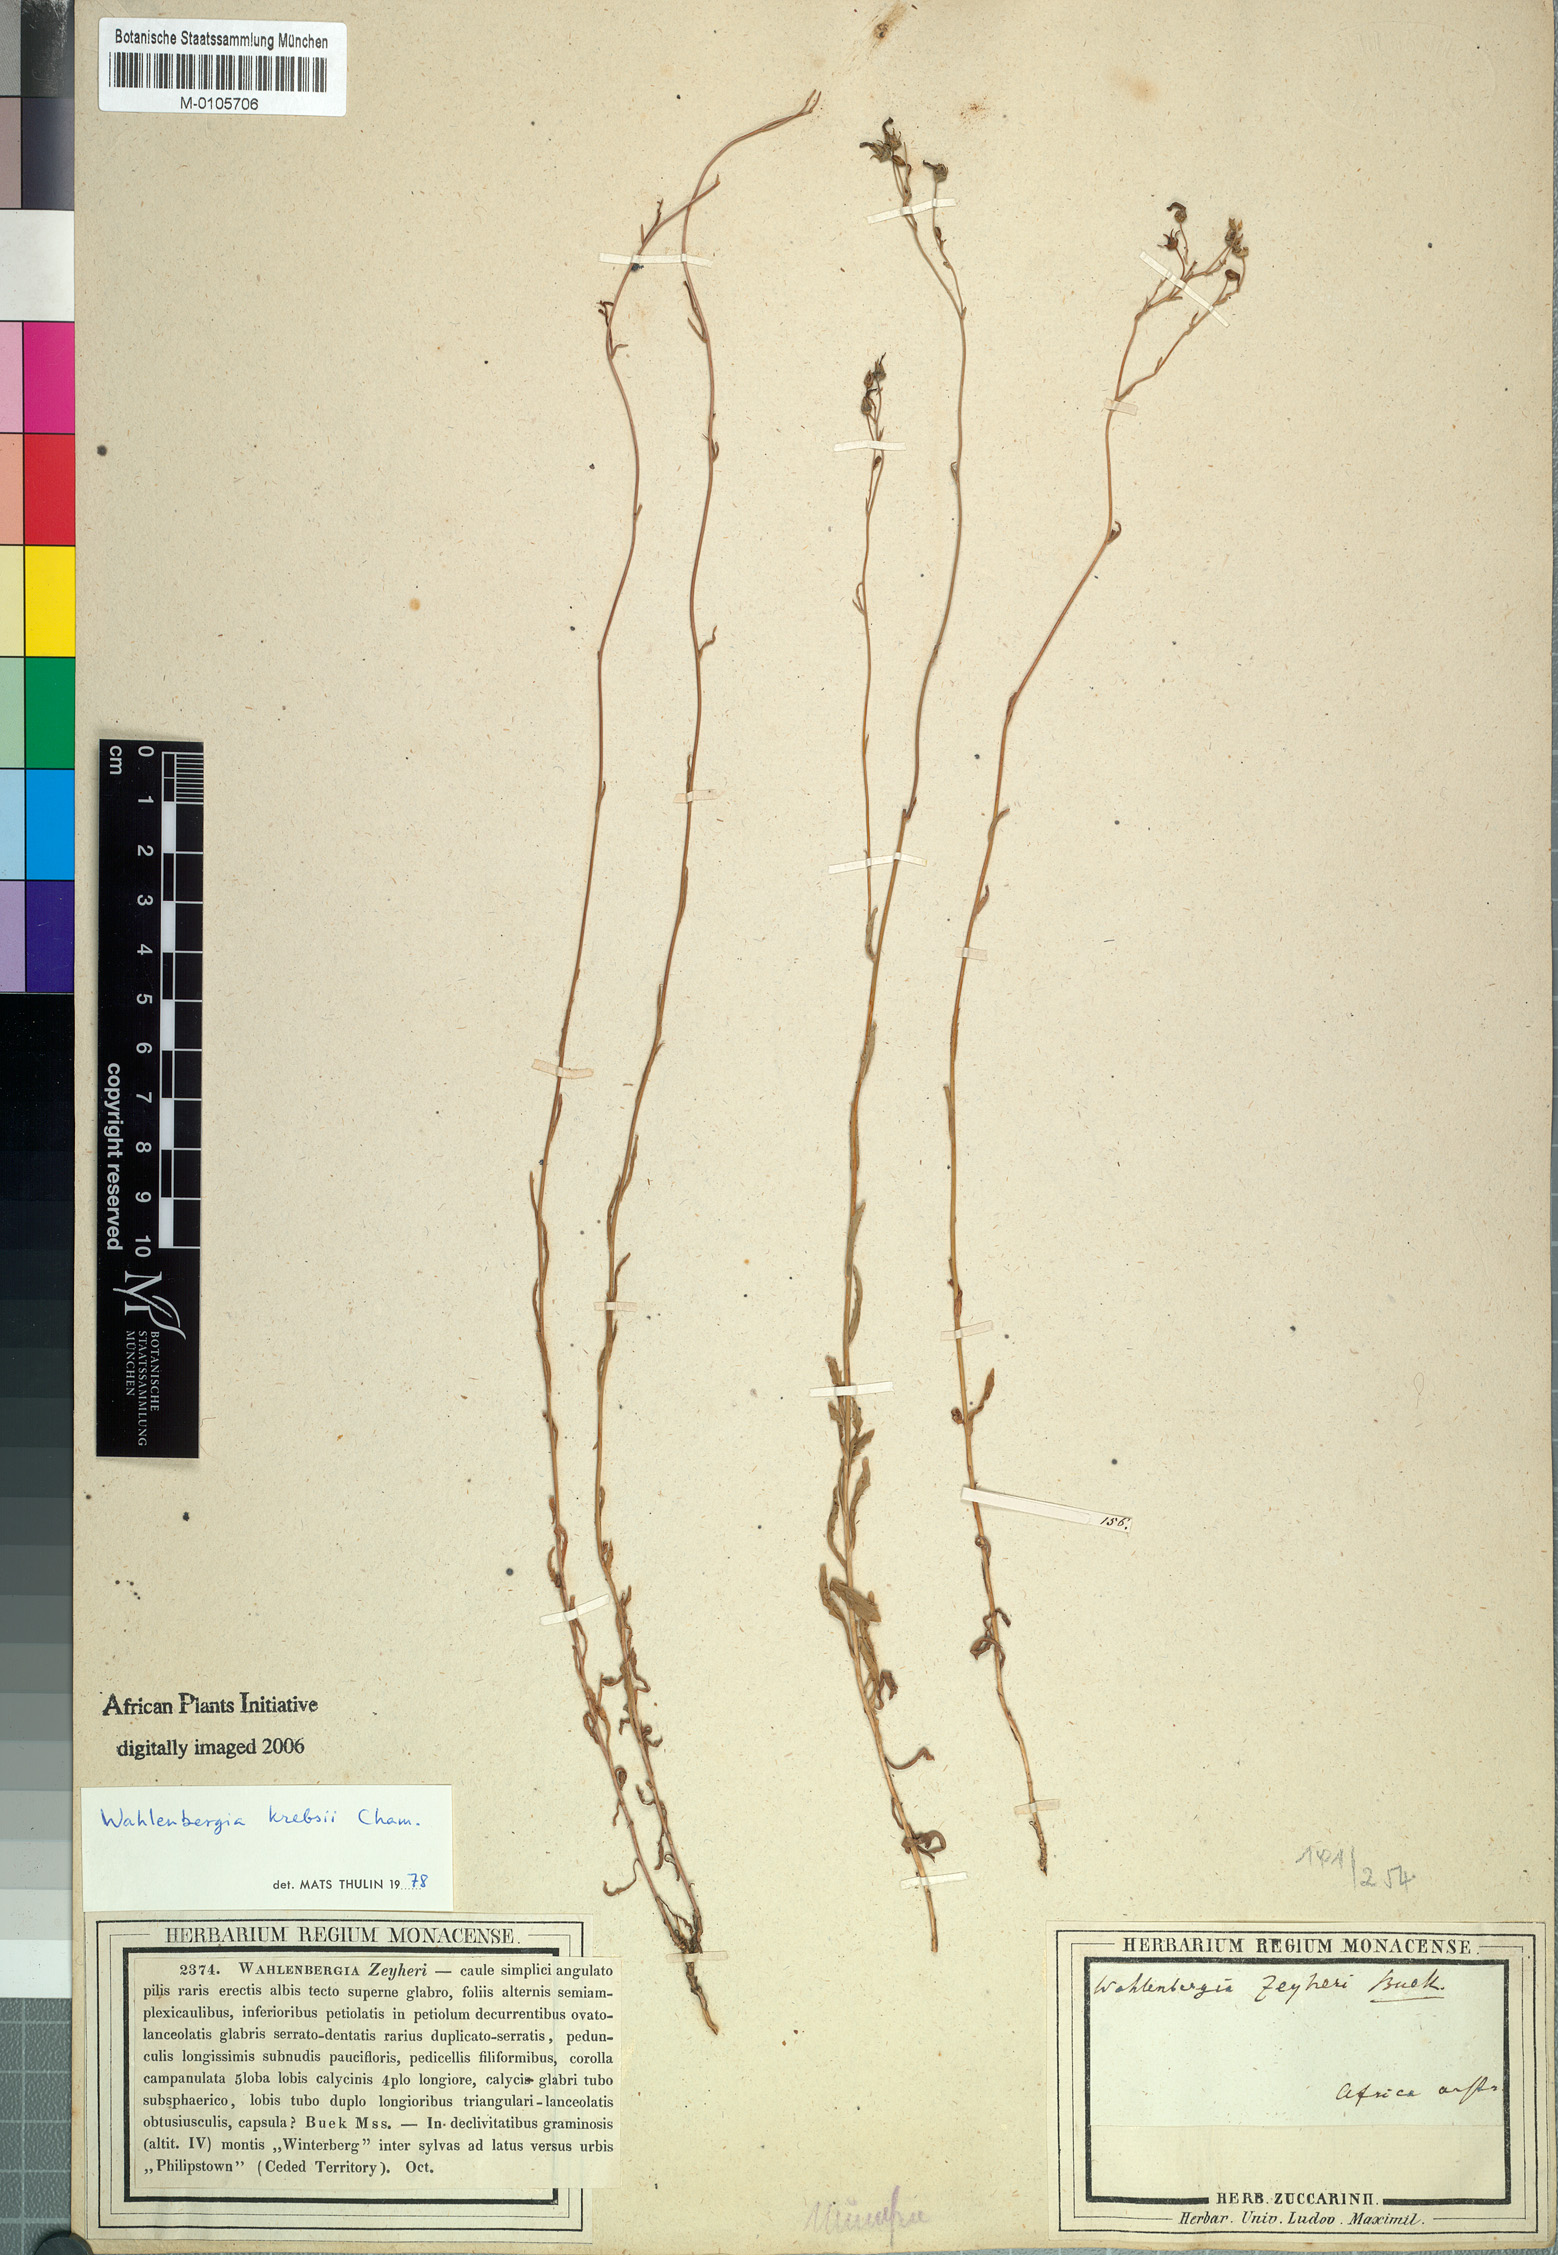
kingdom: Plantae
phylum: Tracheophyta
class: Magnoliopsida
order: Asterales
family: Campanulaceae
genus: Wahlenbergia
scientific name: Wahlenbergia krebsii
